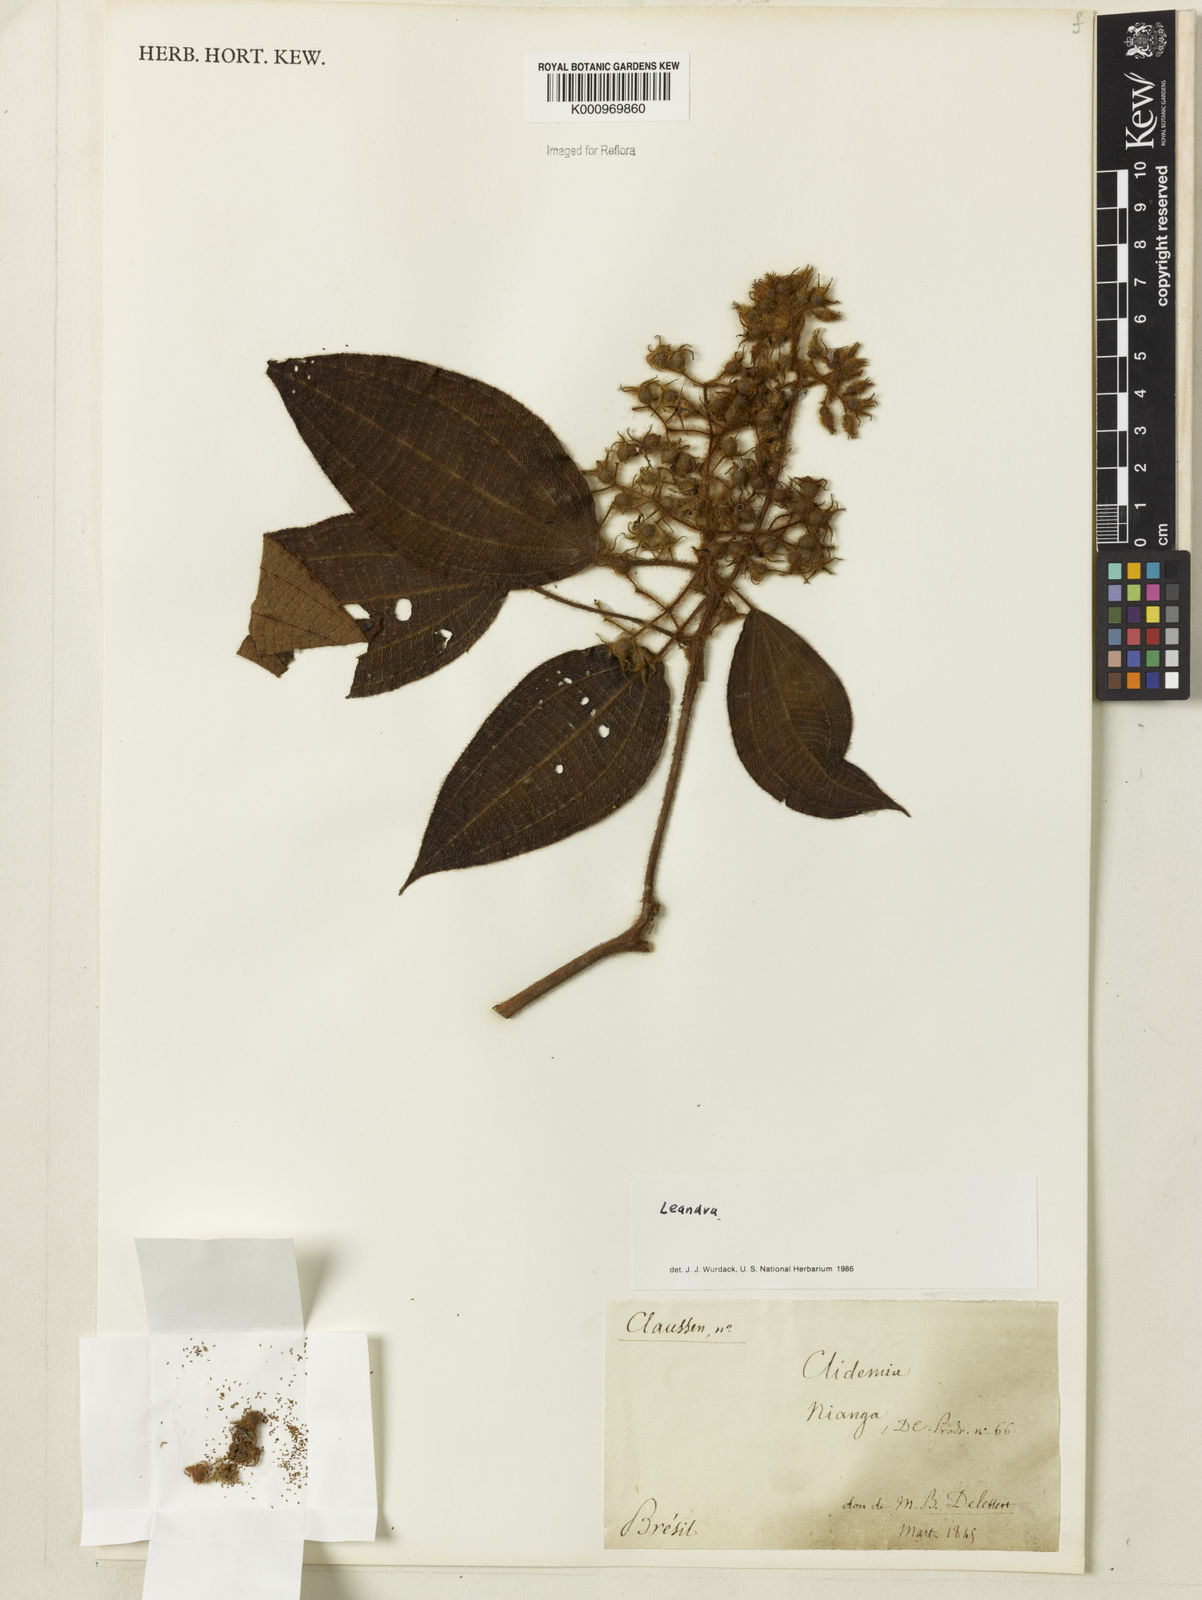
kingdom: Plantae
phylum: Tracheophyta
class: Magnoliopsida
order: Myrtales
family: Melastomataceae
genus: Miconia
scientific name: Miconia
